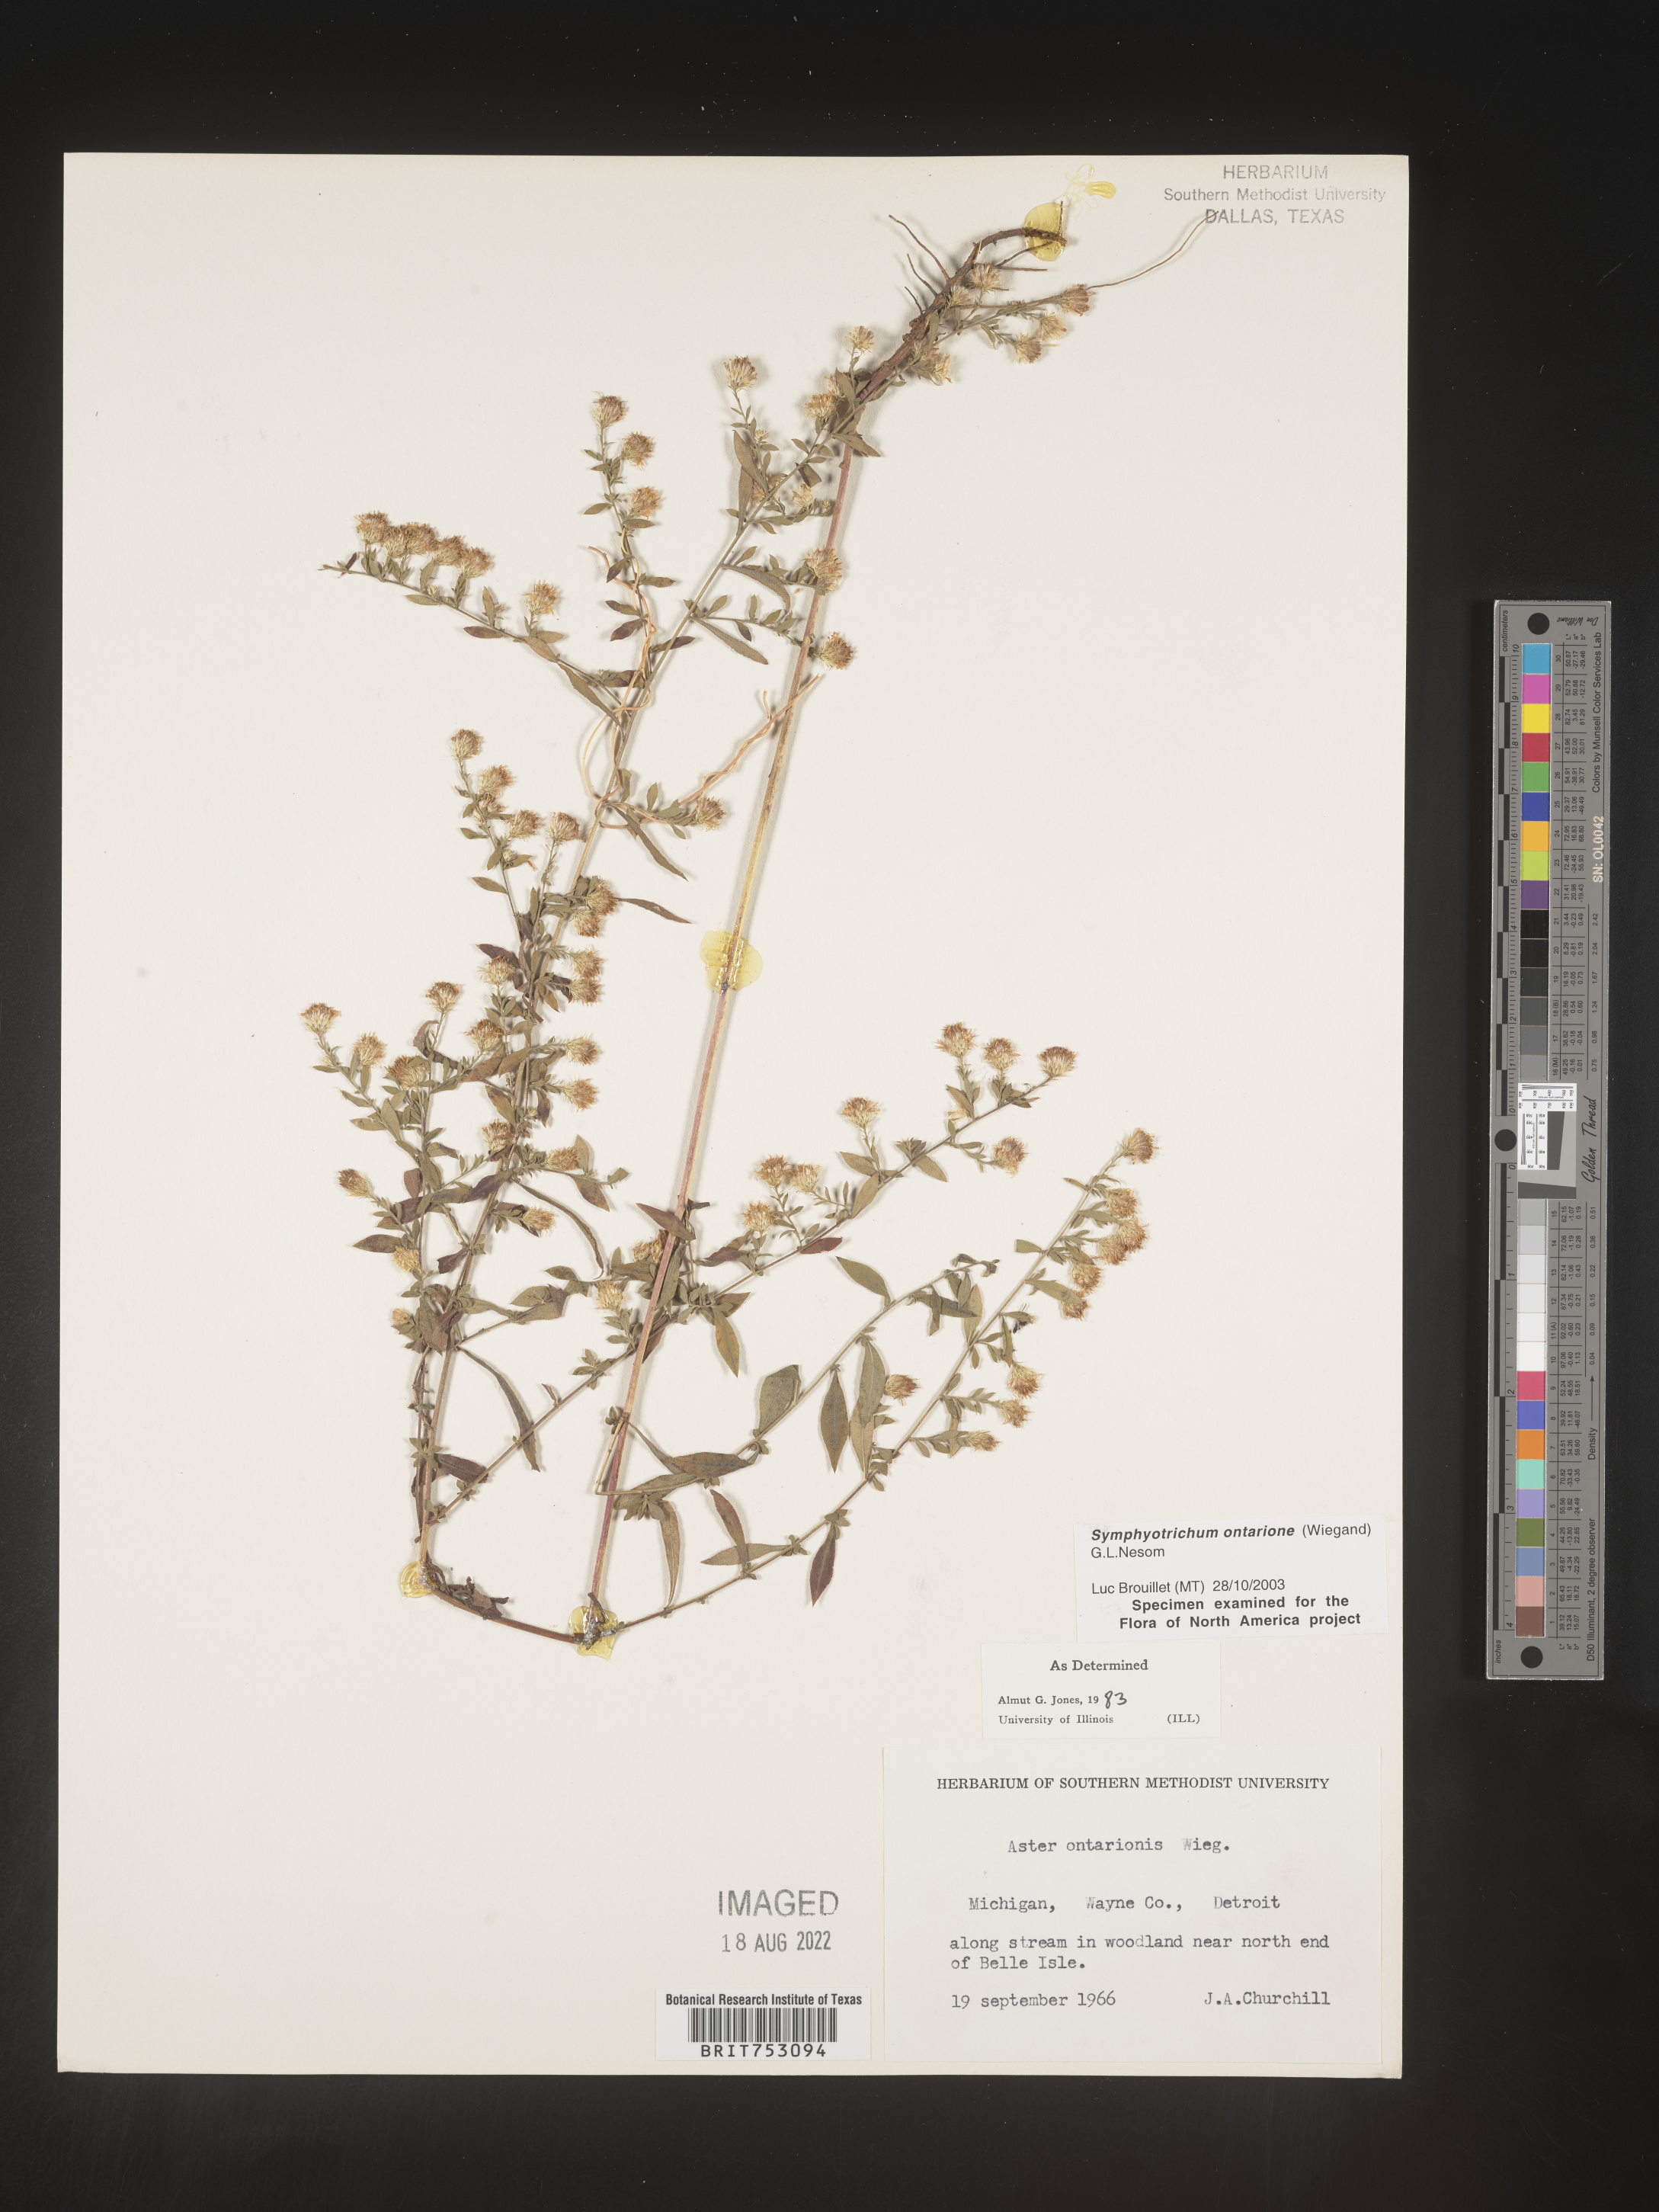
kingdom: Plantae
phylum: Tracheophyta
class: Magnoliopsida
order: Asterales
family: Asteraceae
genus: Symphyotrichum
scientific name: Symphyotrichum ontarionis
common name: Bottomland aster
